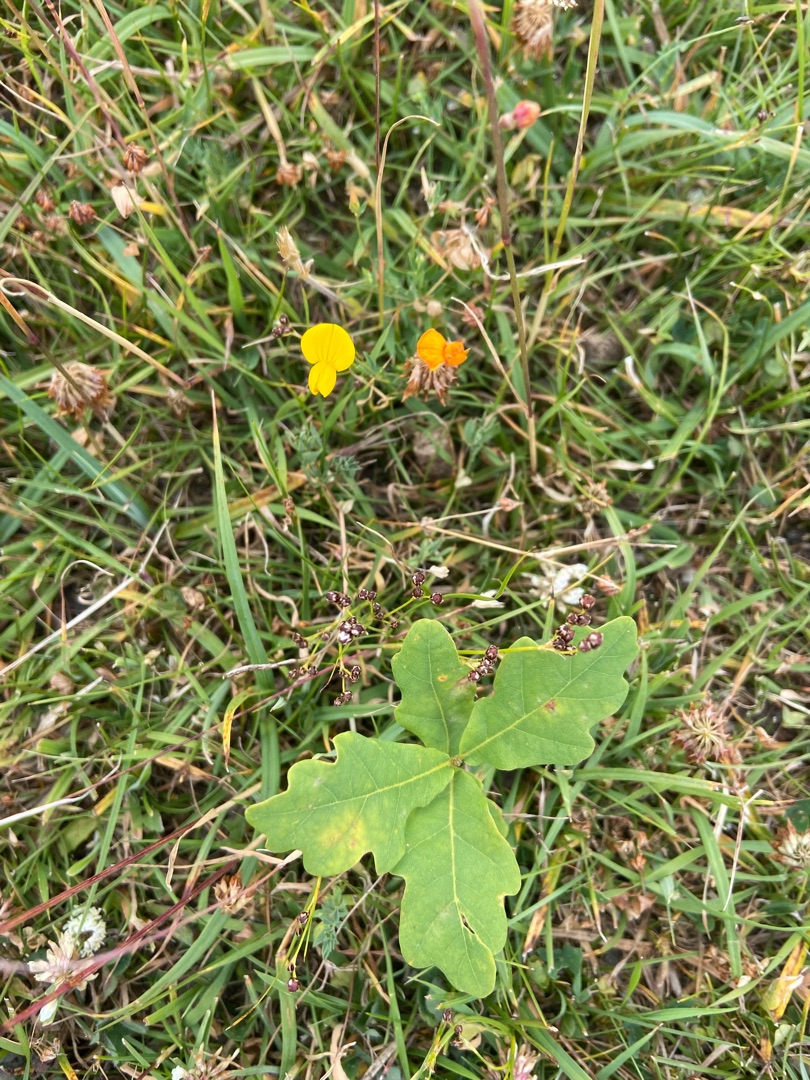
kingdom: Plantae
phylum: Tracheophyta
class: Magnoliopsida
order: Fagales
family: Fagaceae
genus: Quercus
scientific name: Quercus
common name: Egeslægten
